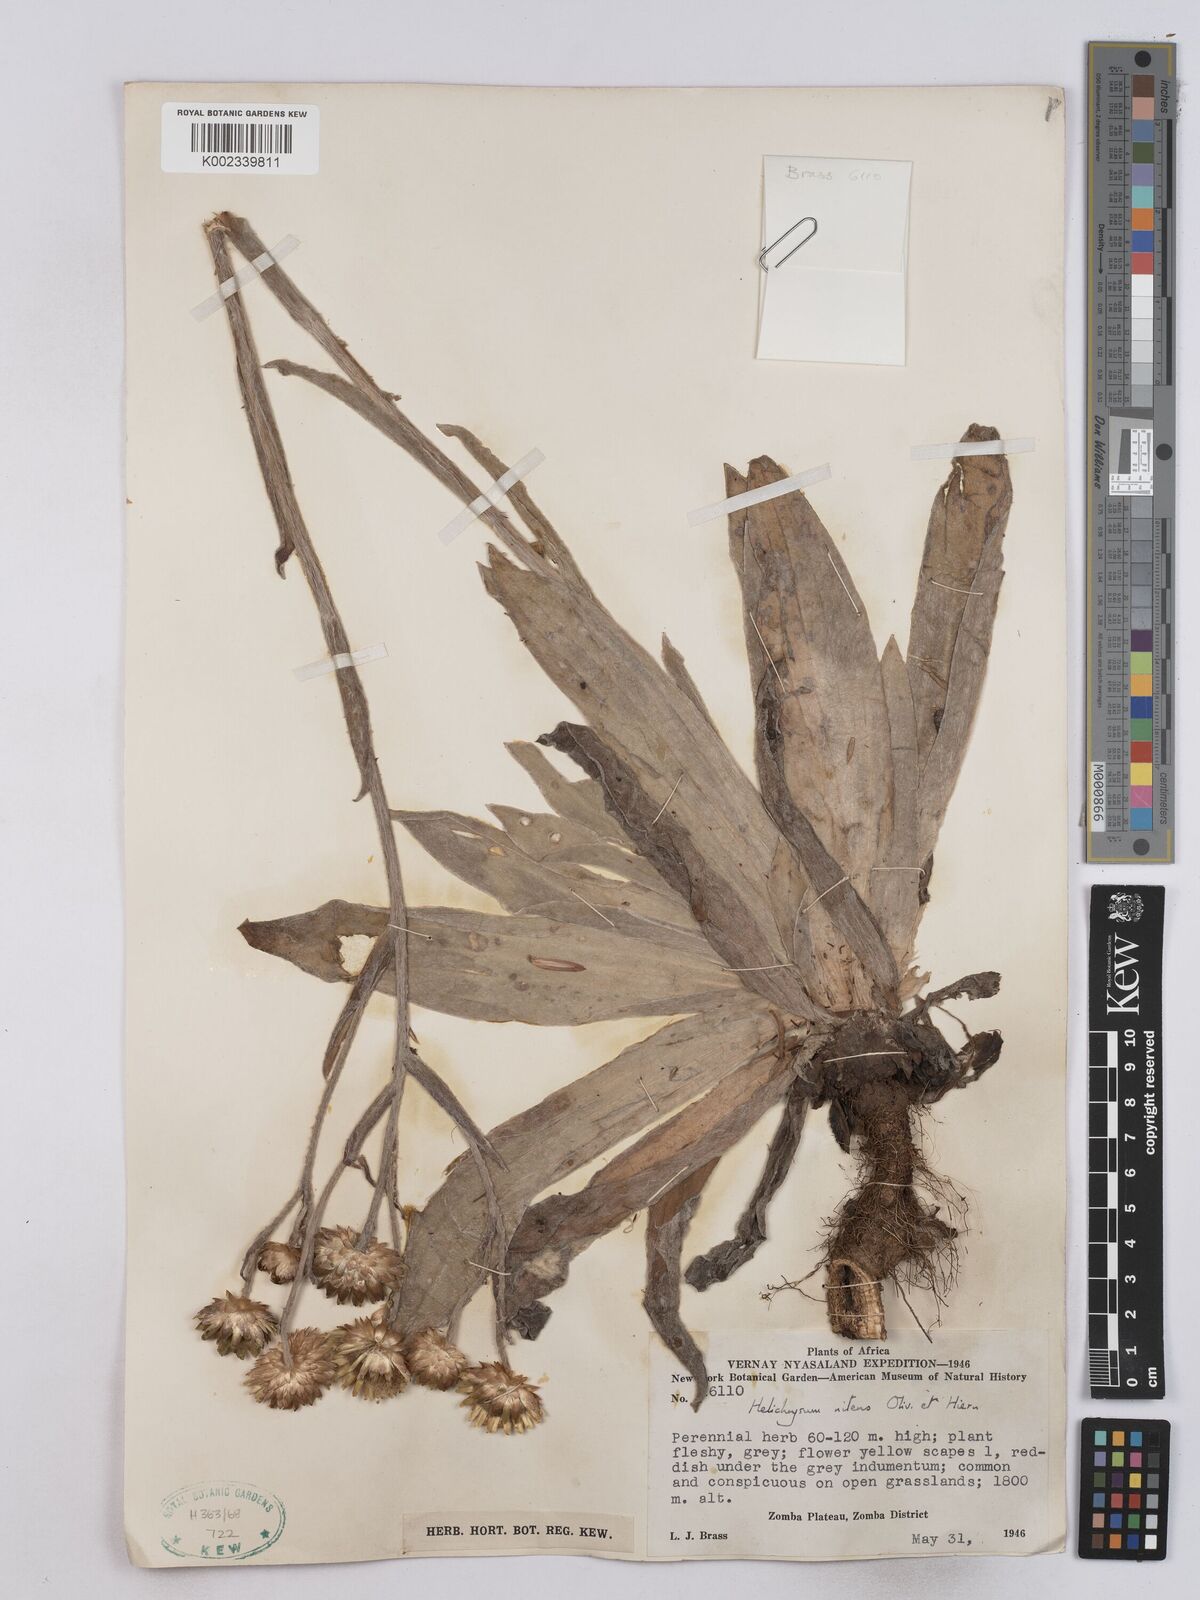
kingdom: Plantae
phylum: Tracheophyta
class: Magnoliopsida
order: Asterales
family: Asteraceae
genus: Helichrysum
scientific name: Helichrysum nitens
